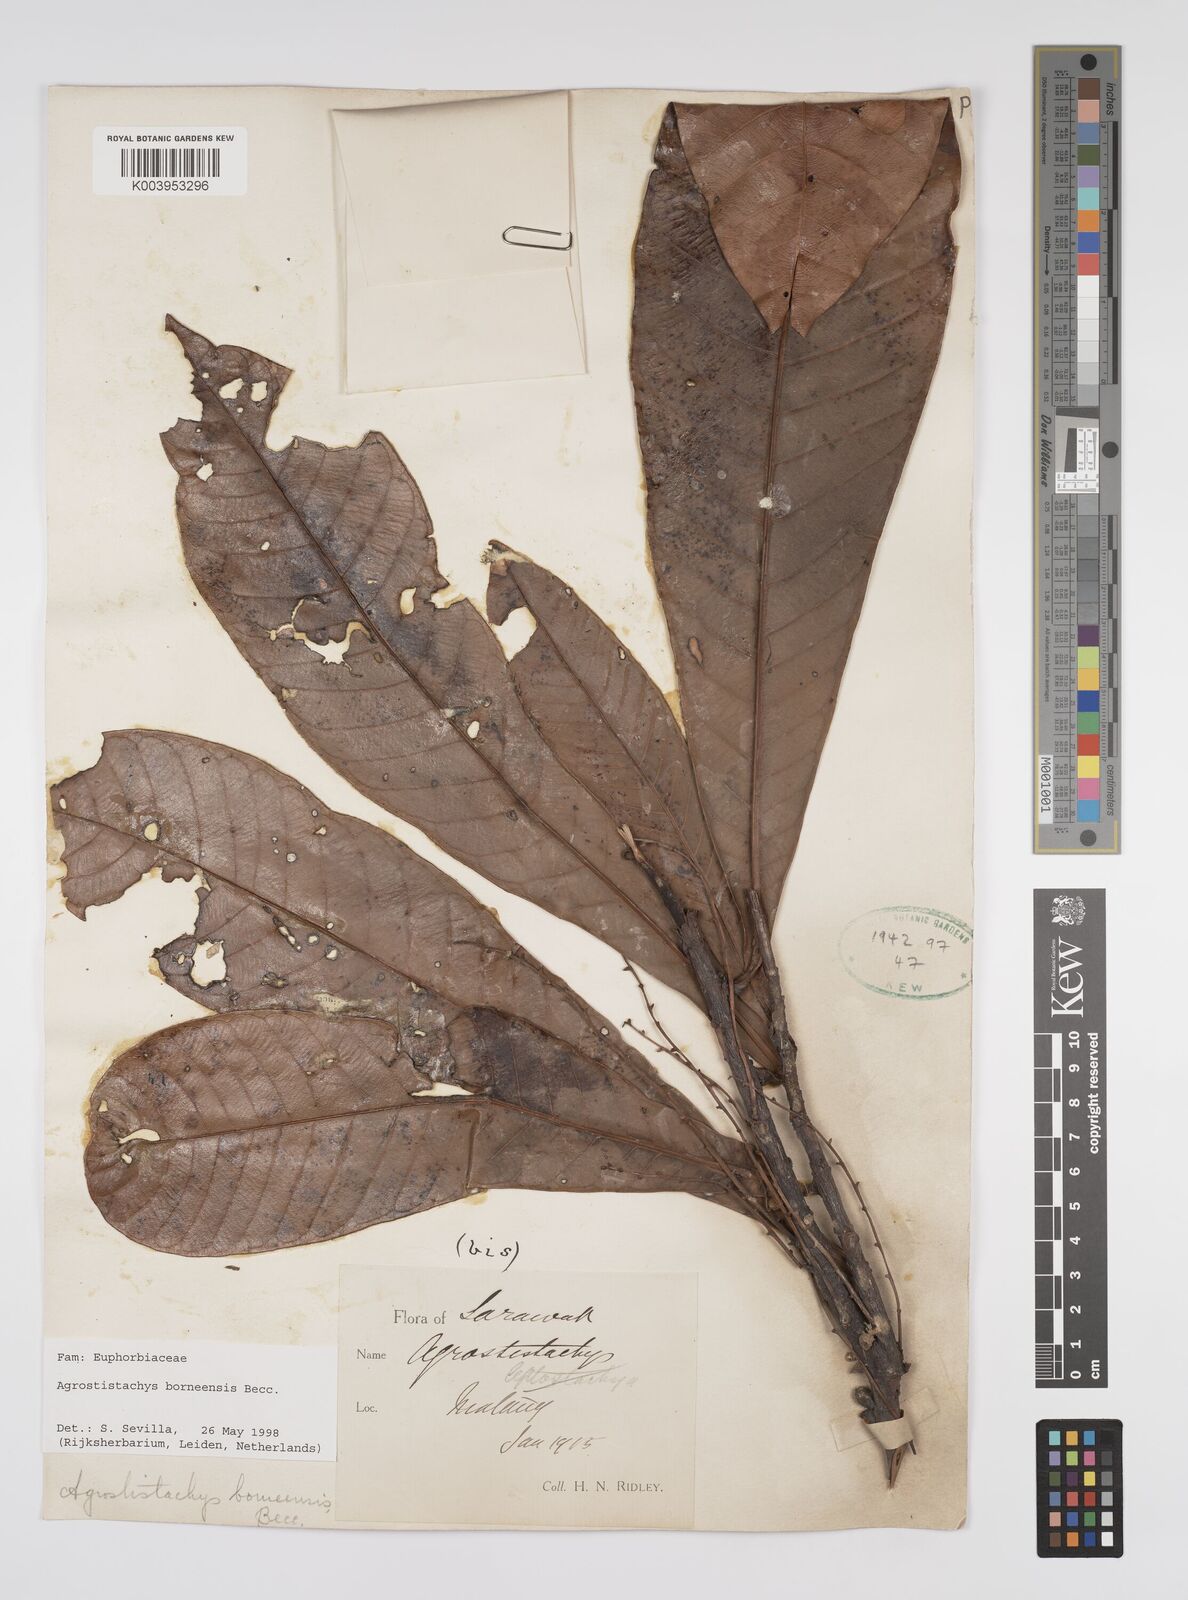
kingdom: Plantae
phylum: Tracheophyta
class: Magnoliopsida
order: Malpighiales
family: Euphorbiaceae
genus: Agrostistachys
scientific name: Agrostistachys
